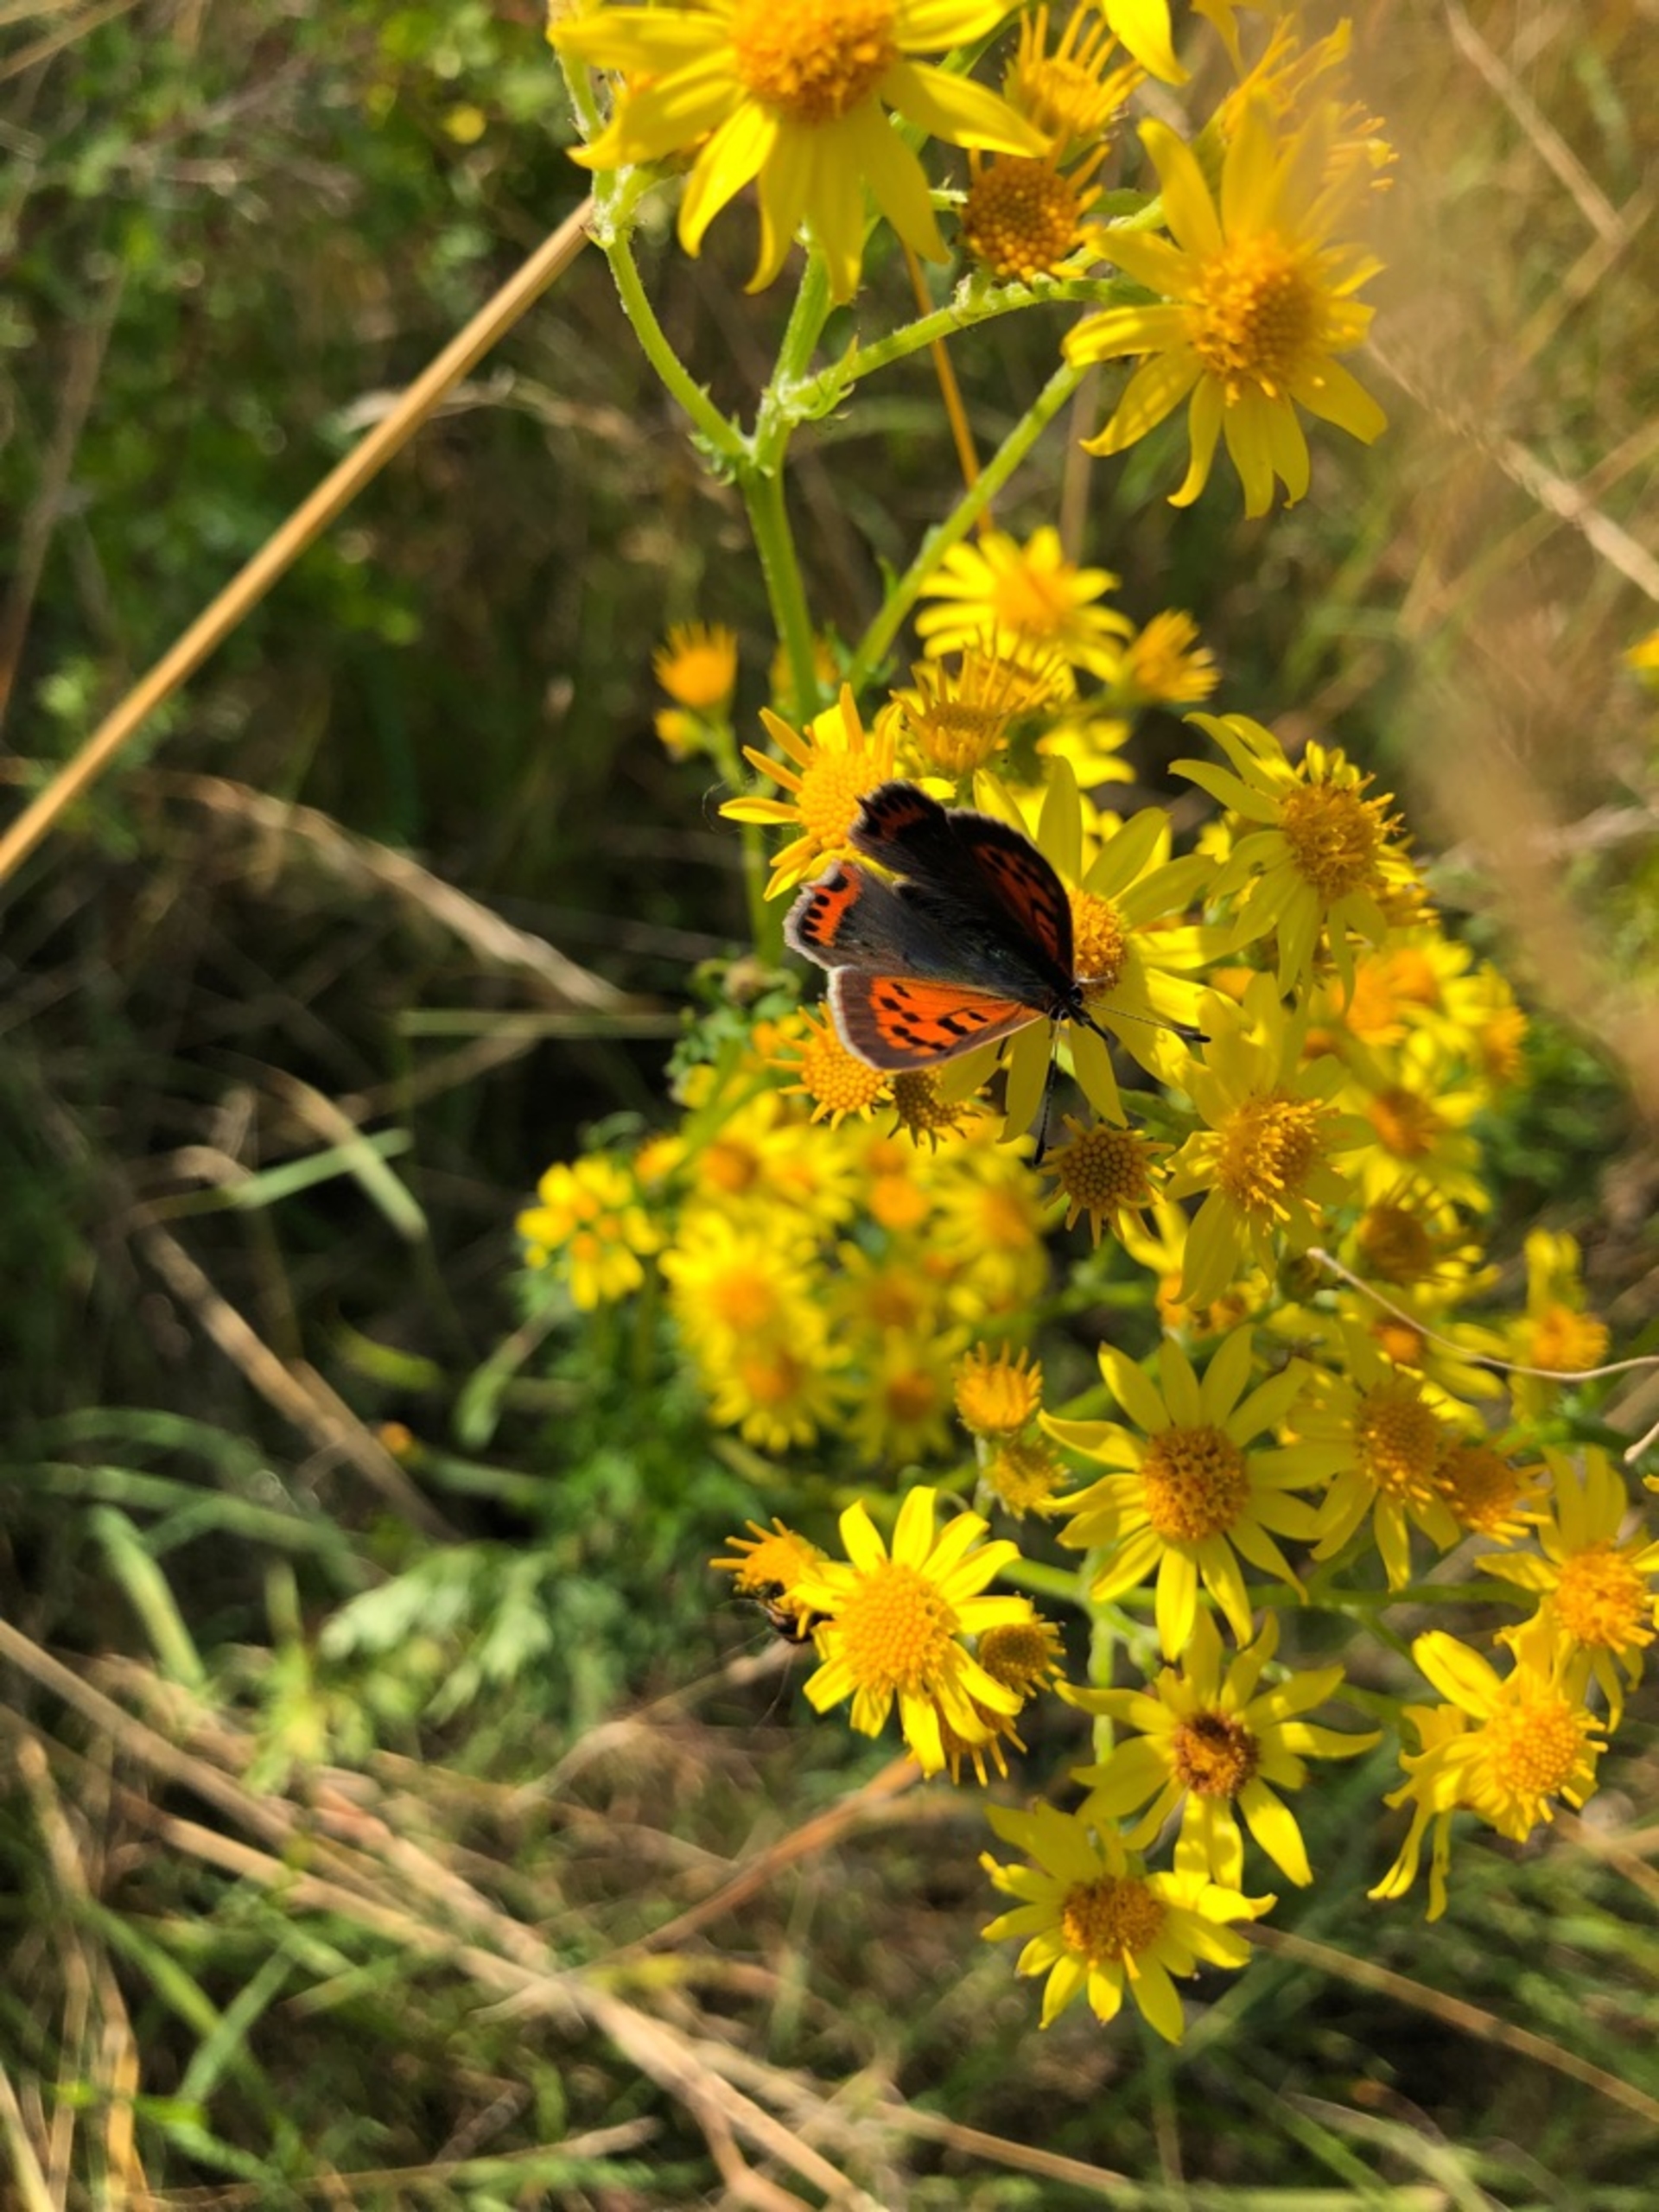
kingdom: Animalia
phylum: Arthropoda
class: Insecta
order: Lepidoptera
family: Lycaenidae
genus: Lycaena
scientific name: Lycaena phlaeas
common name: Lille ildfugl
